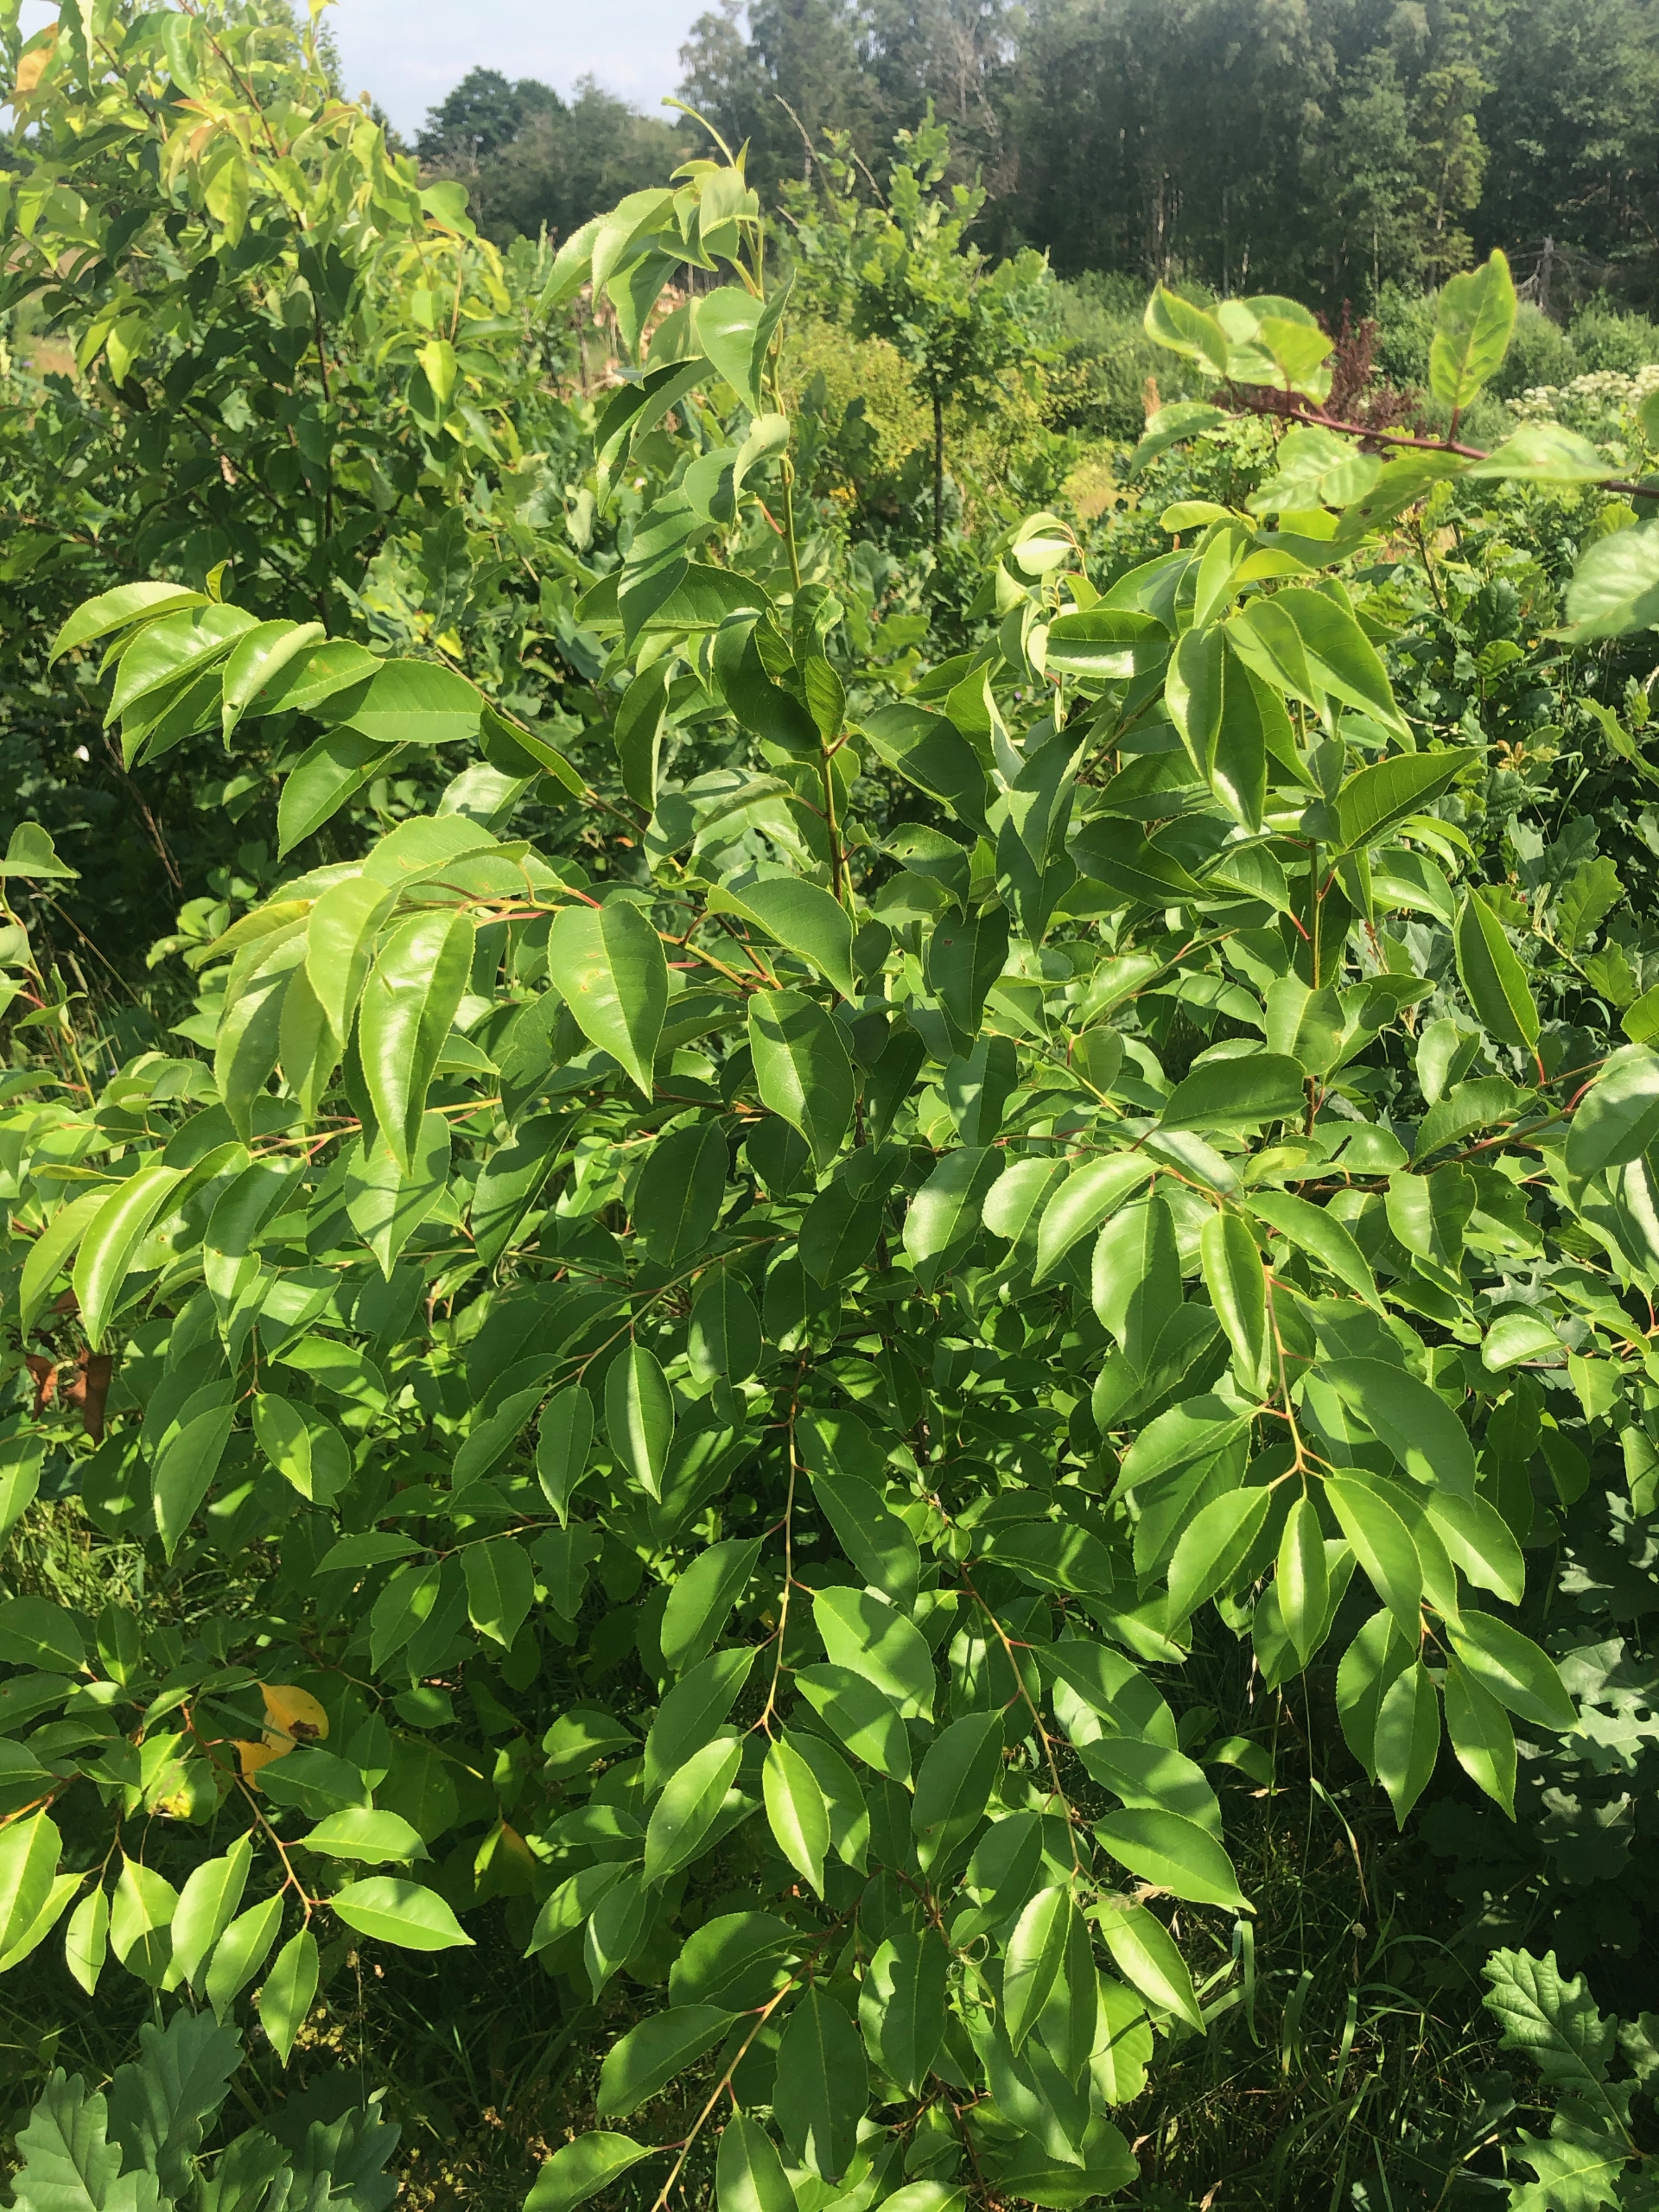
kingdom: Plantae
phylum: Tracheophyta
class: Magnoliopsida
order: Rosales
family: Rosaceae
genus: Prunus
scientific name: Prunus serotina
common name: Glansbladet hæg
